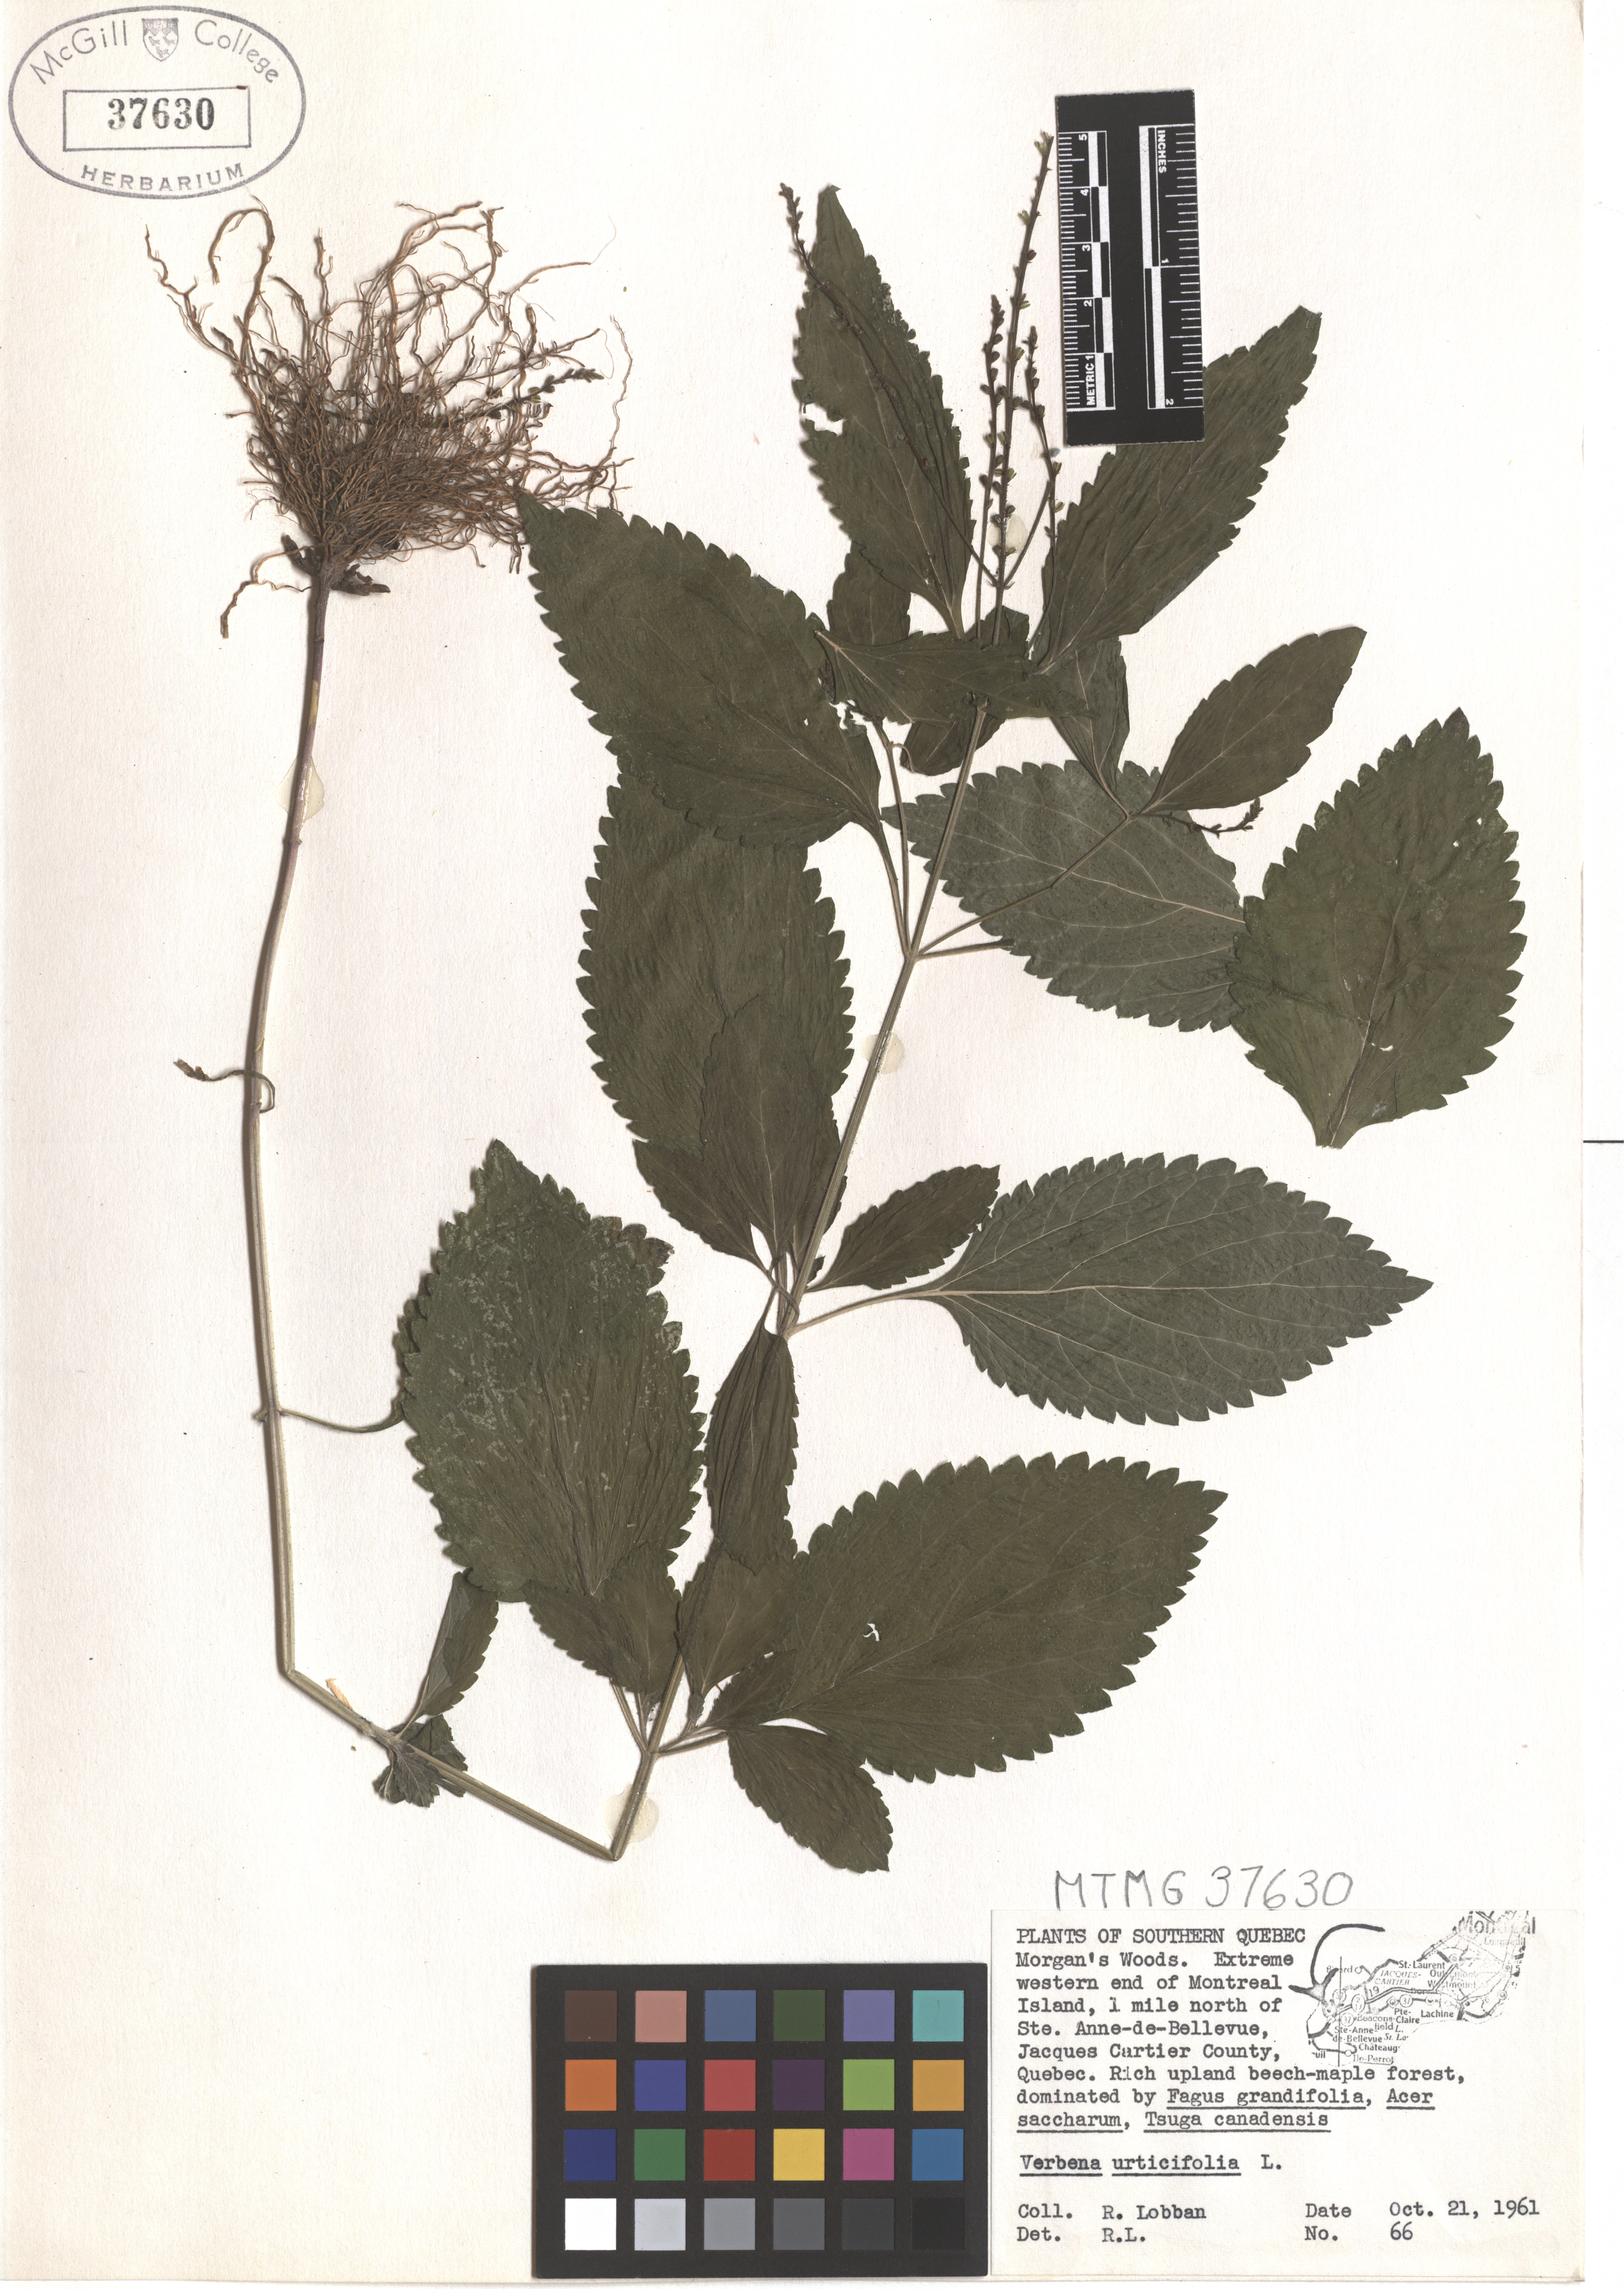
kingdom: Plantae
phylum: Tracheophyta
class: Magnoliopsida
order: Lamiales
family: Verbenaceae
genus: Verbena
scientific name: Verbena urticifolia
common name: Nettle-leaved vervain
